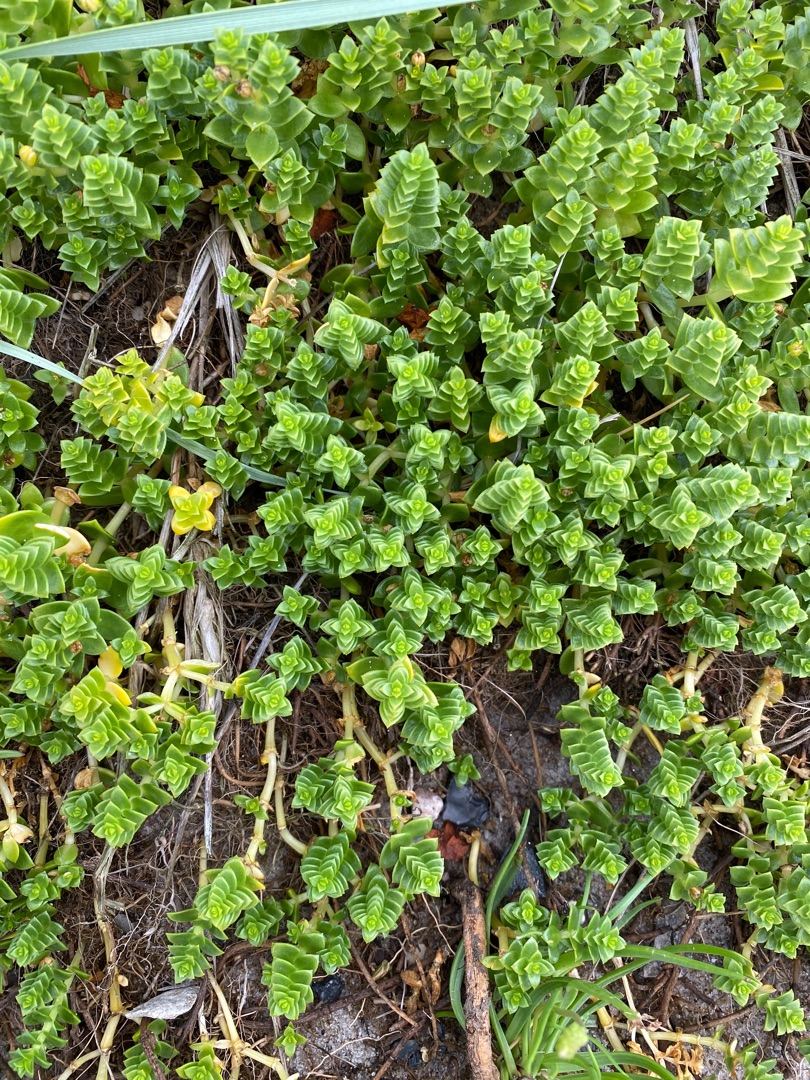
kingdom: Plantae
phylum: Tracheophyta
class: Magnoliopsida
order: Caryophyllales
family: Caryophyllaceae
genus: Honckenya
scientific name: Honckenya peploides
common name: Strandarve
